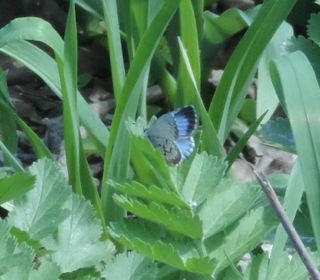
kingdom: Animalia
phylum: Arthropoda
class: Insecta
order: Lepidoptera
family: Lycaenidae
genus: Celastrina
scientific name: Celastrina lucia
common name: Northern Spring Azure
